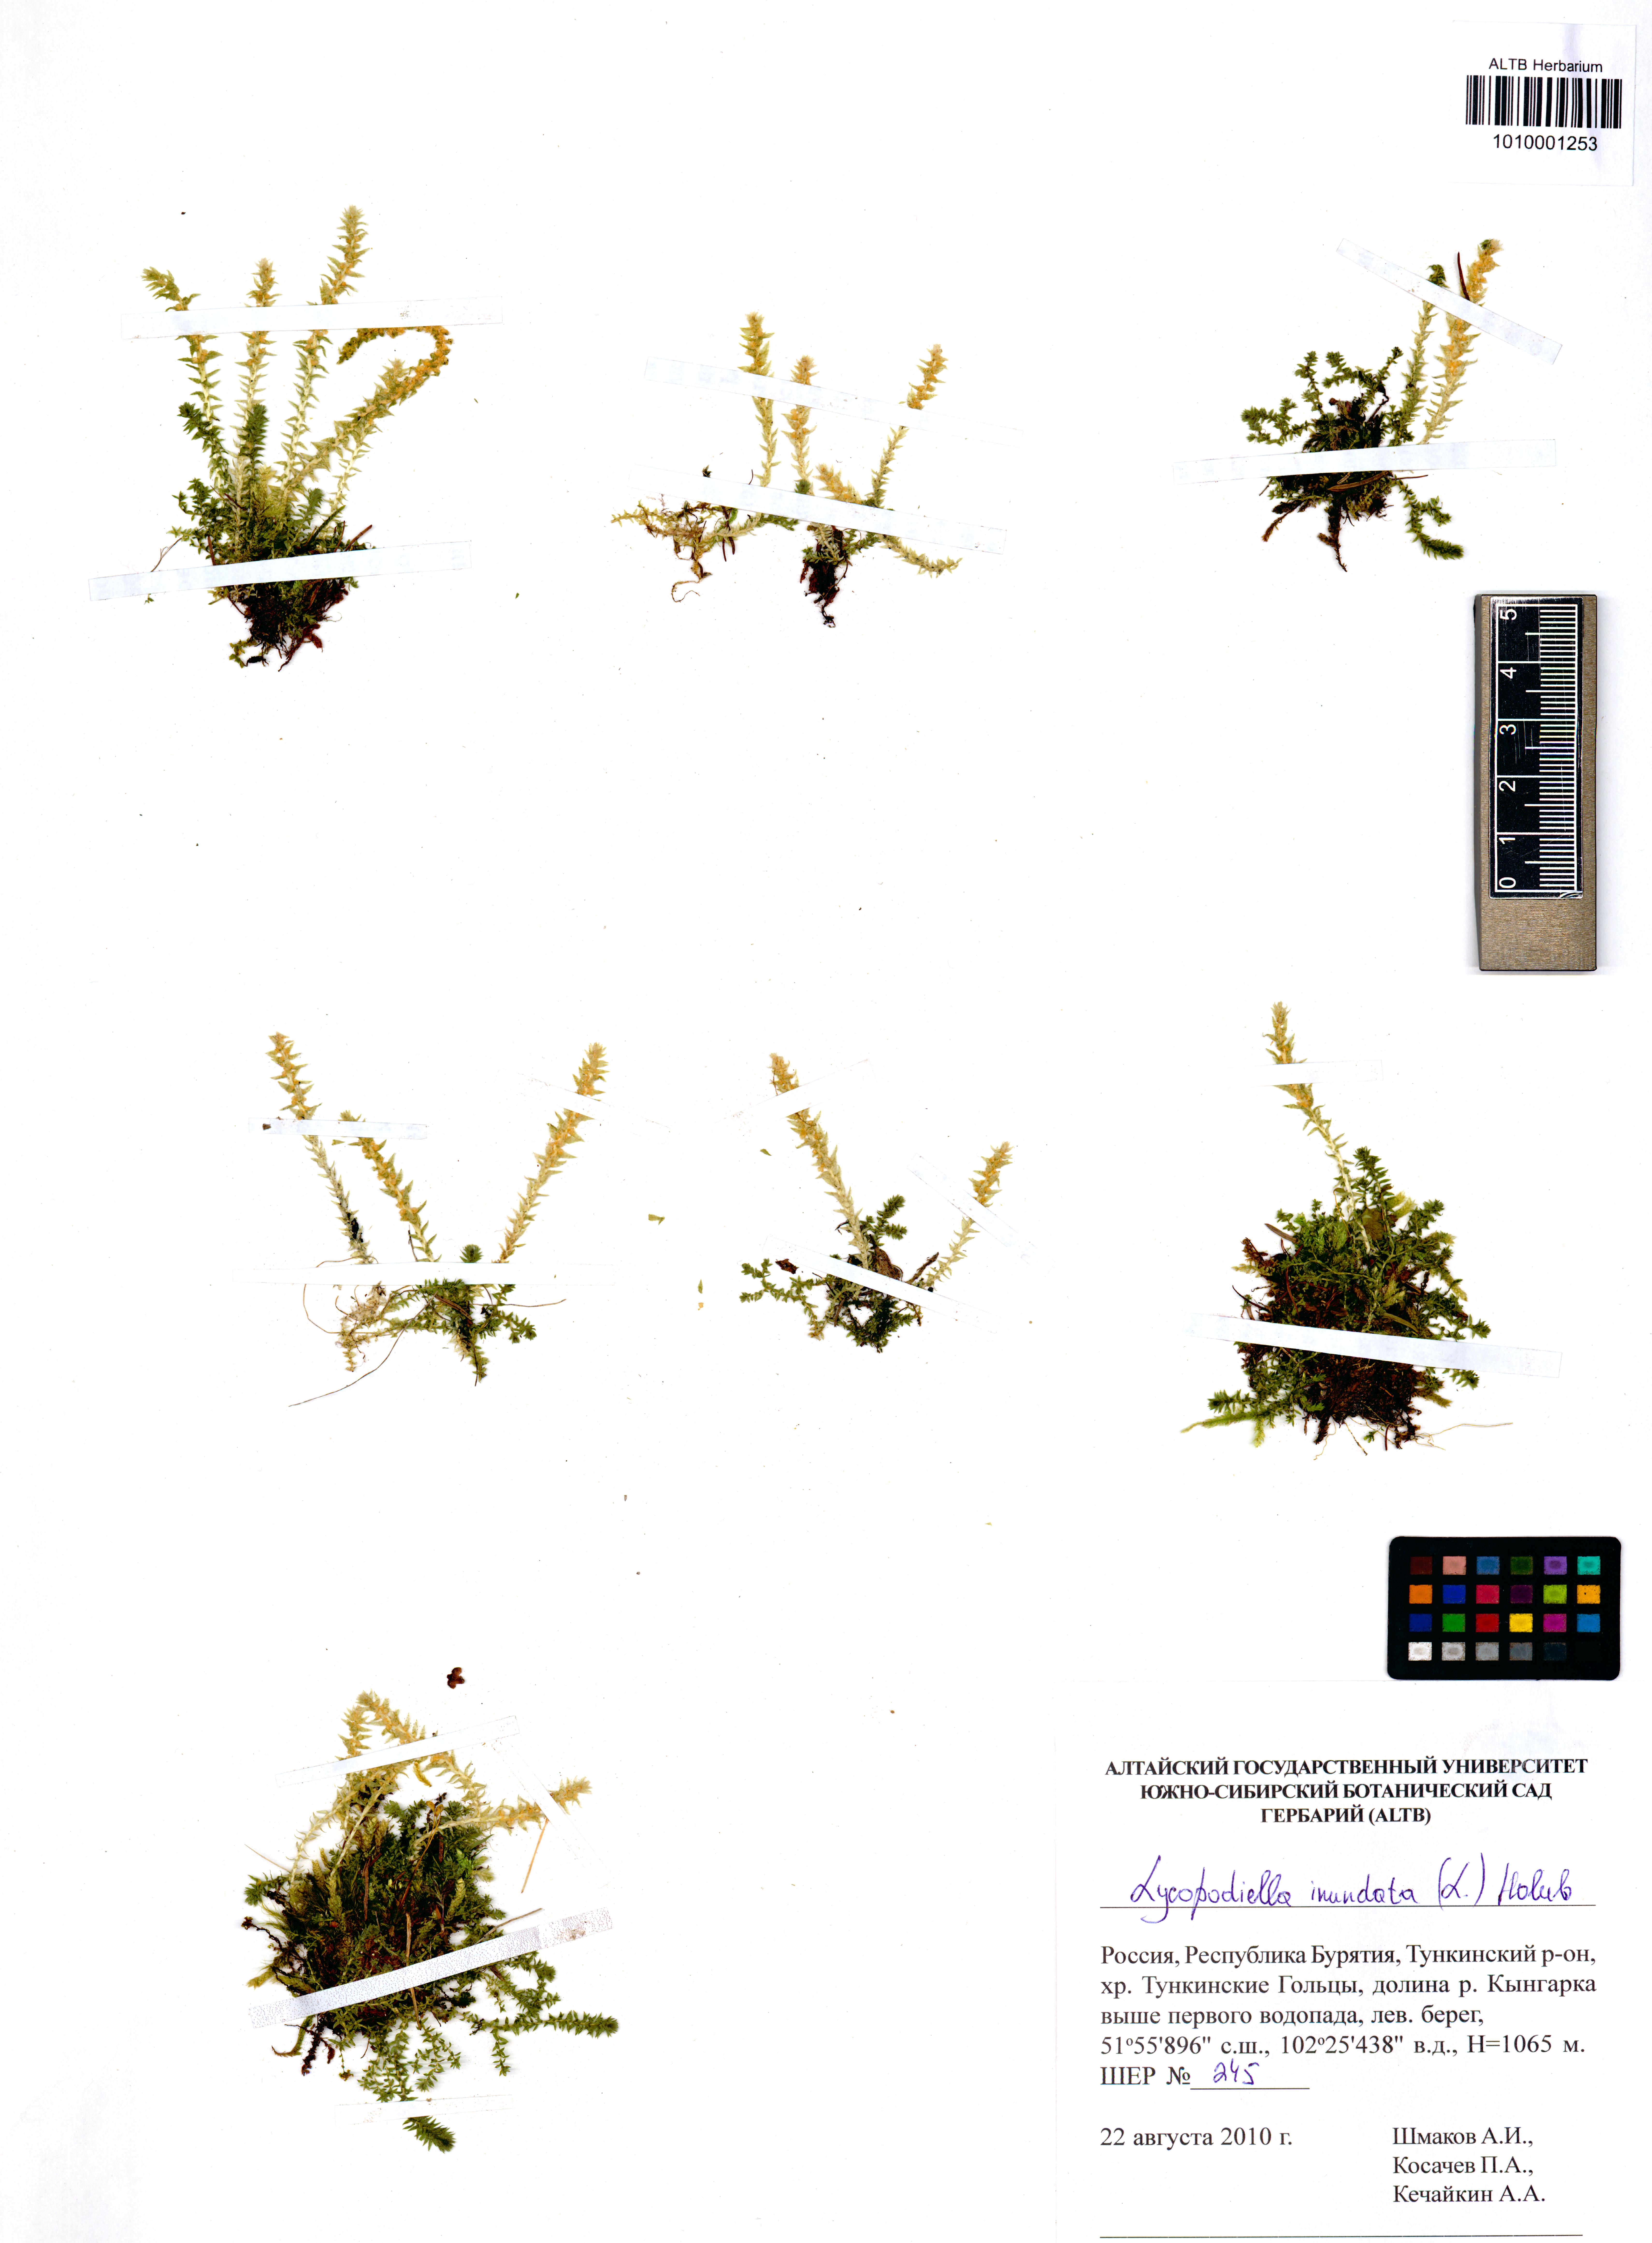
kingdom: Plantae
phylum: Tracheophyta
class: Lycopodiopsida
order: Lycopodiales
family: Lycopodiaceae
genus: Lycopodiella
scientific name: Lycopodiella inundata
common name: Marsh clubmoss
